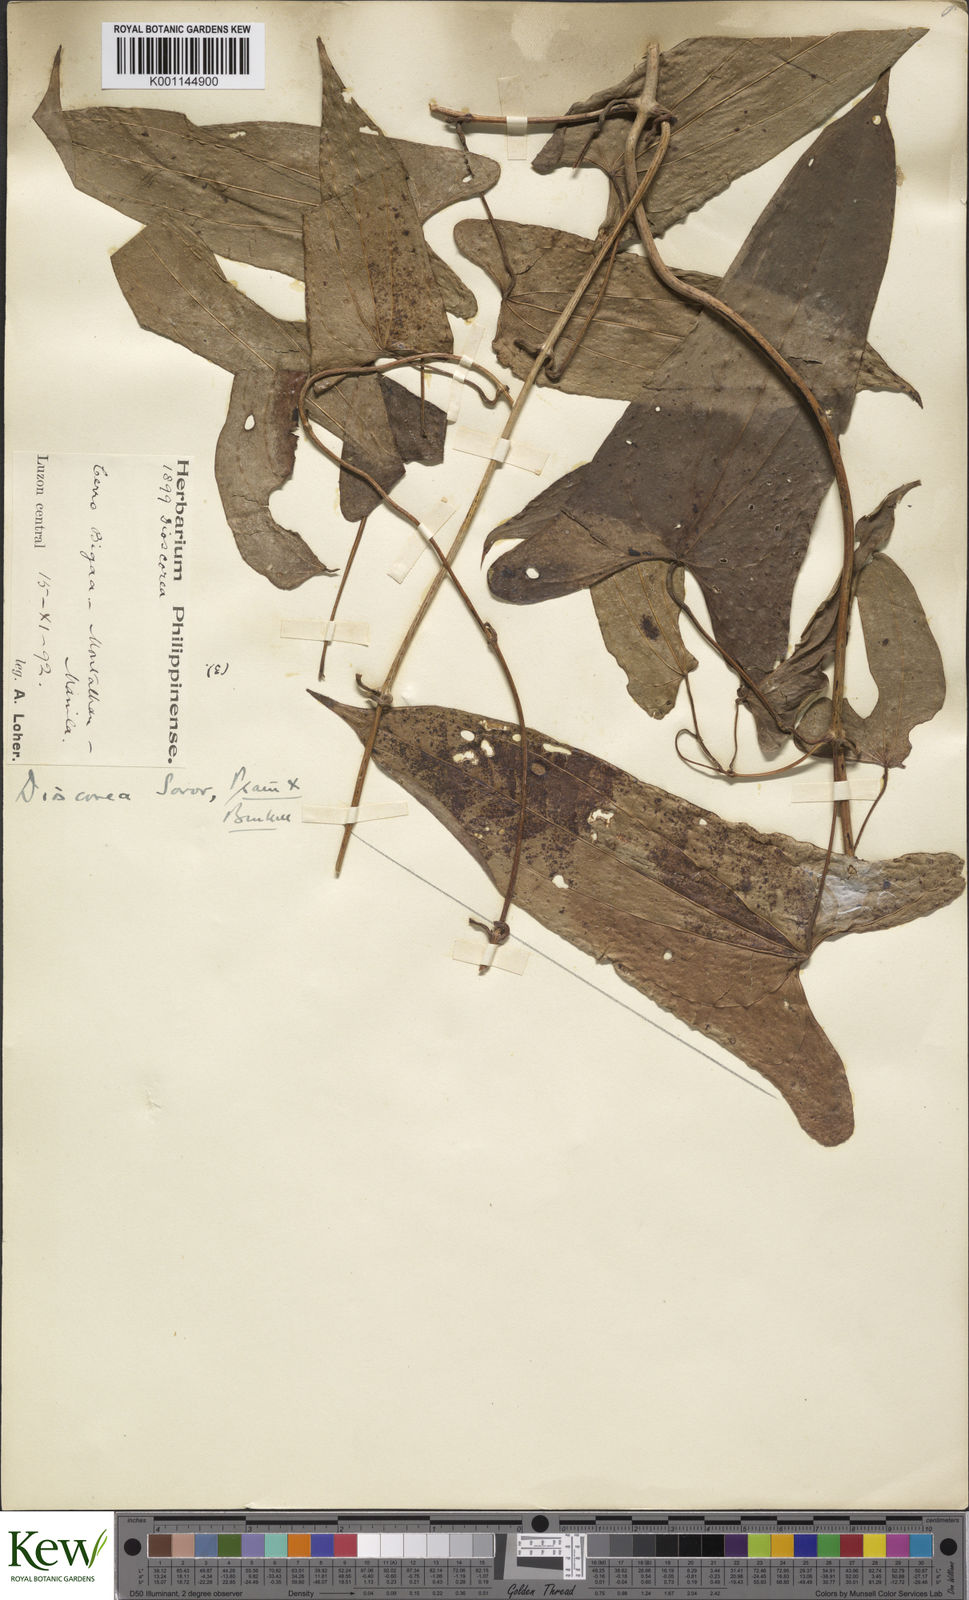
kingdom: Plantae
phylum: Tracheophyta
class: Liliopsida
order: Dioscoreales
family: Dioscoreaceae
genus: Dioscorea
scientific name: Dioscorea divaricata
